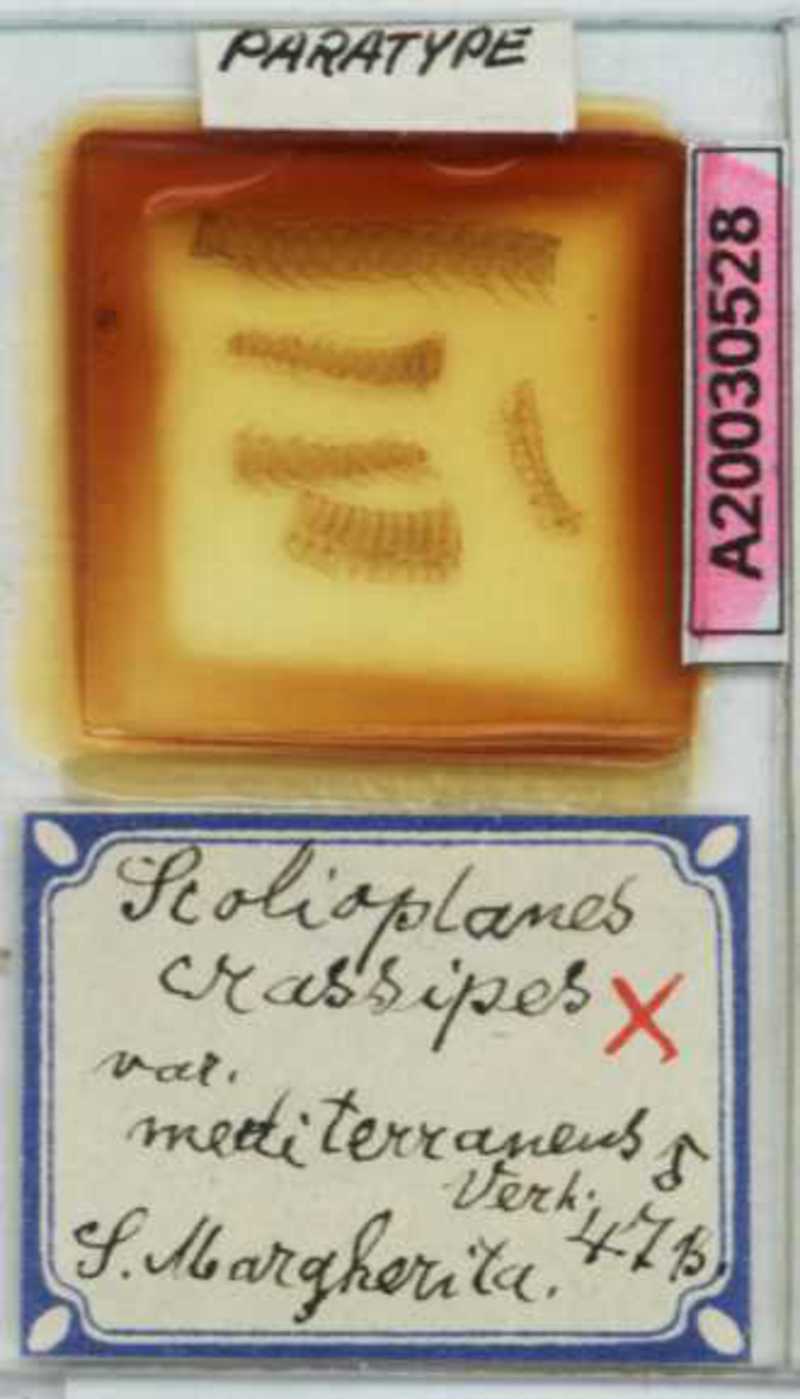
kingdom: Animalia
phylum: Arthropoda
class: Chilopoda
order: Geophilomorpha
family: Linotaeniidae
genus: Strigamia
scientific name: Strigamia crassipes
